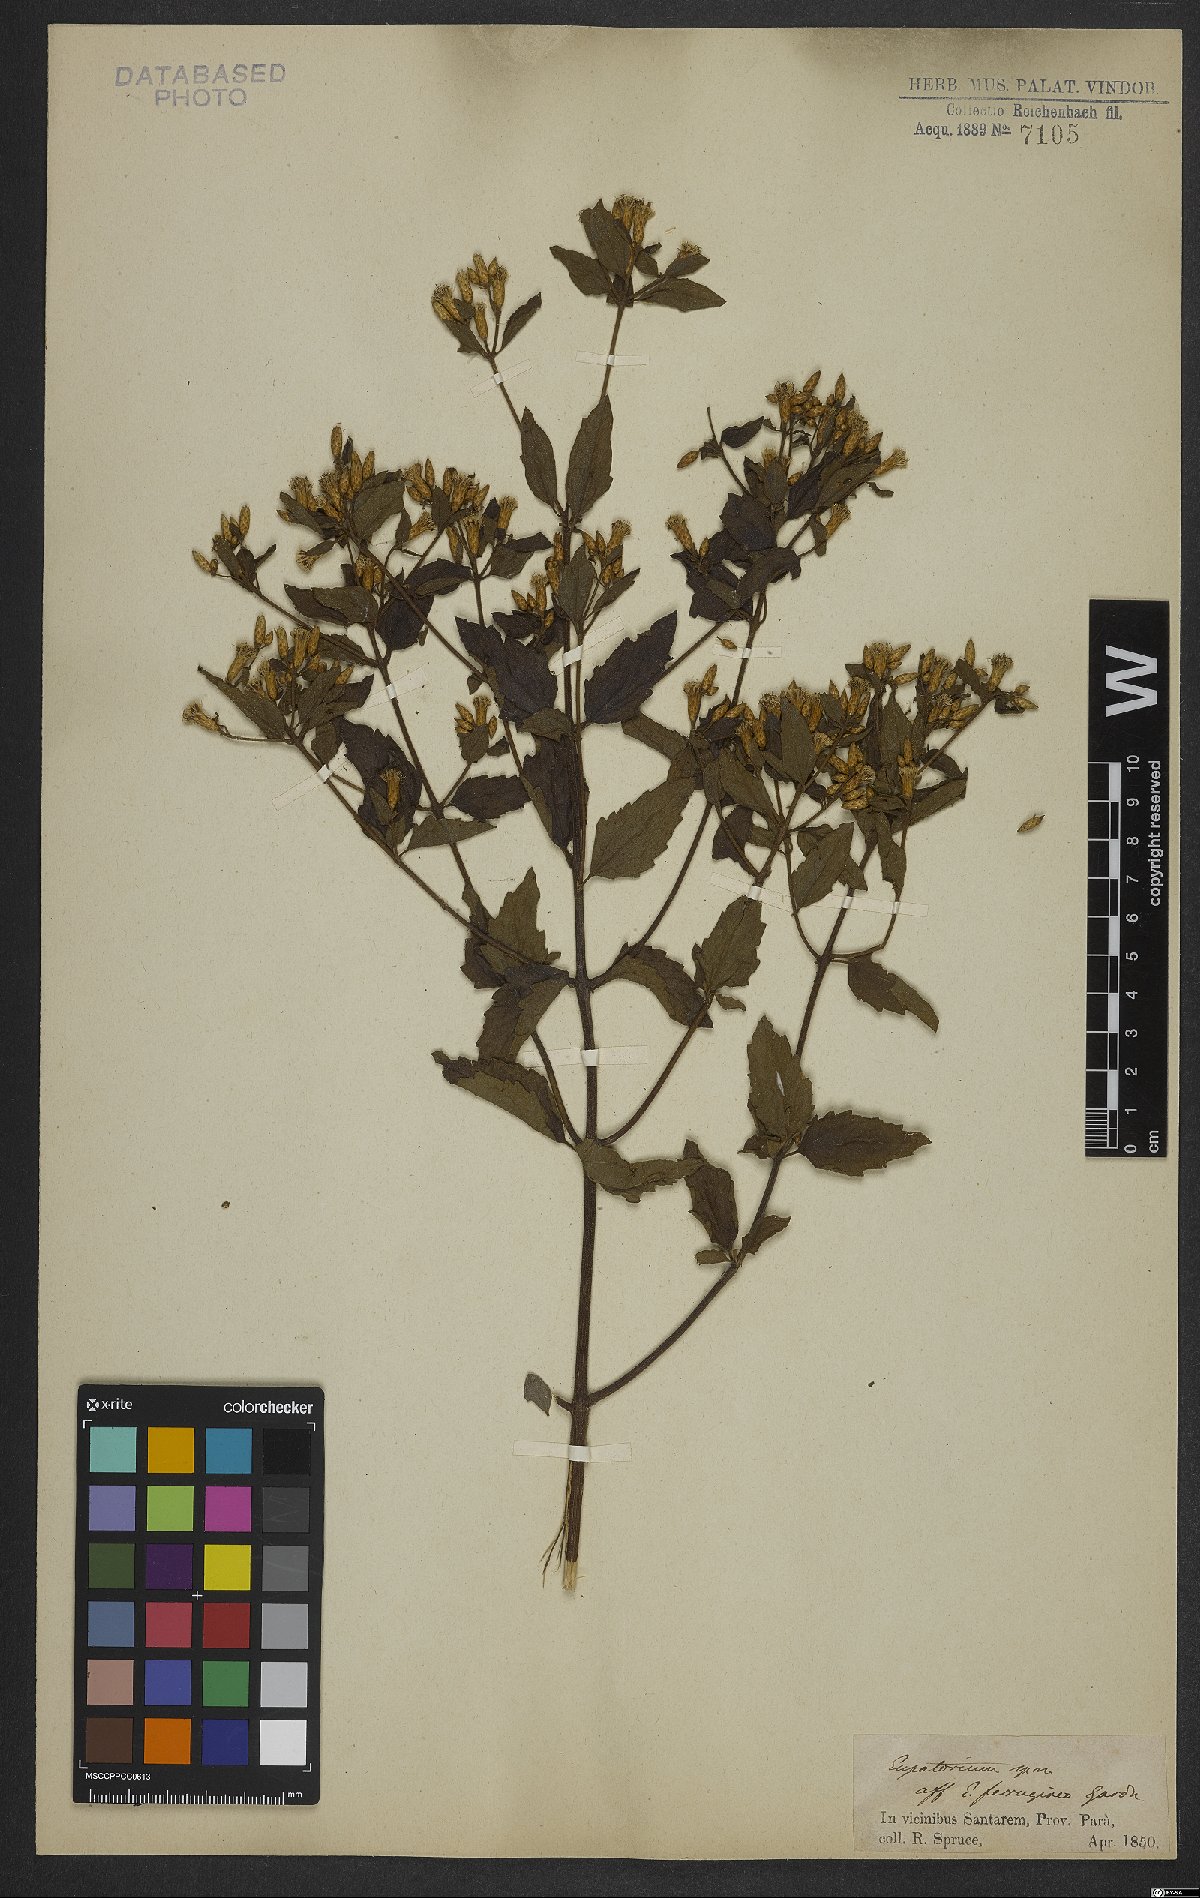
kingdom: Plantae
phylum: Tracheophyta
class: Magnoliopsida
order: Asterales
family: Asteraceae
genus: Chromolaena
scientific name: Chromolaena squalida
